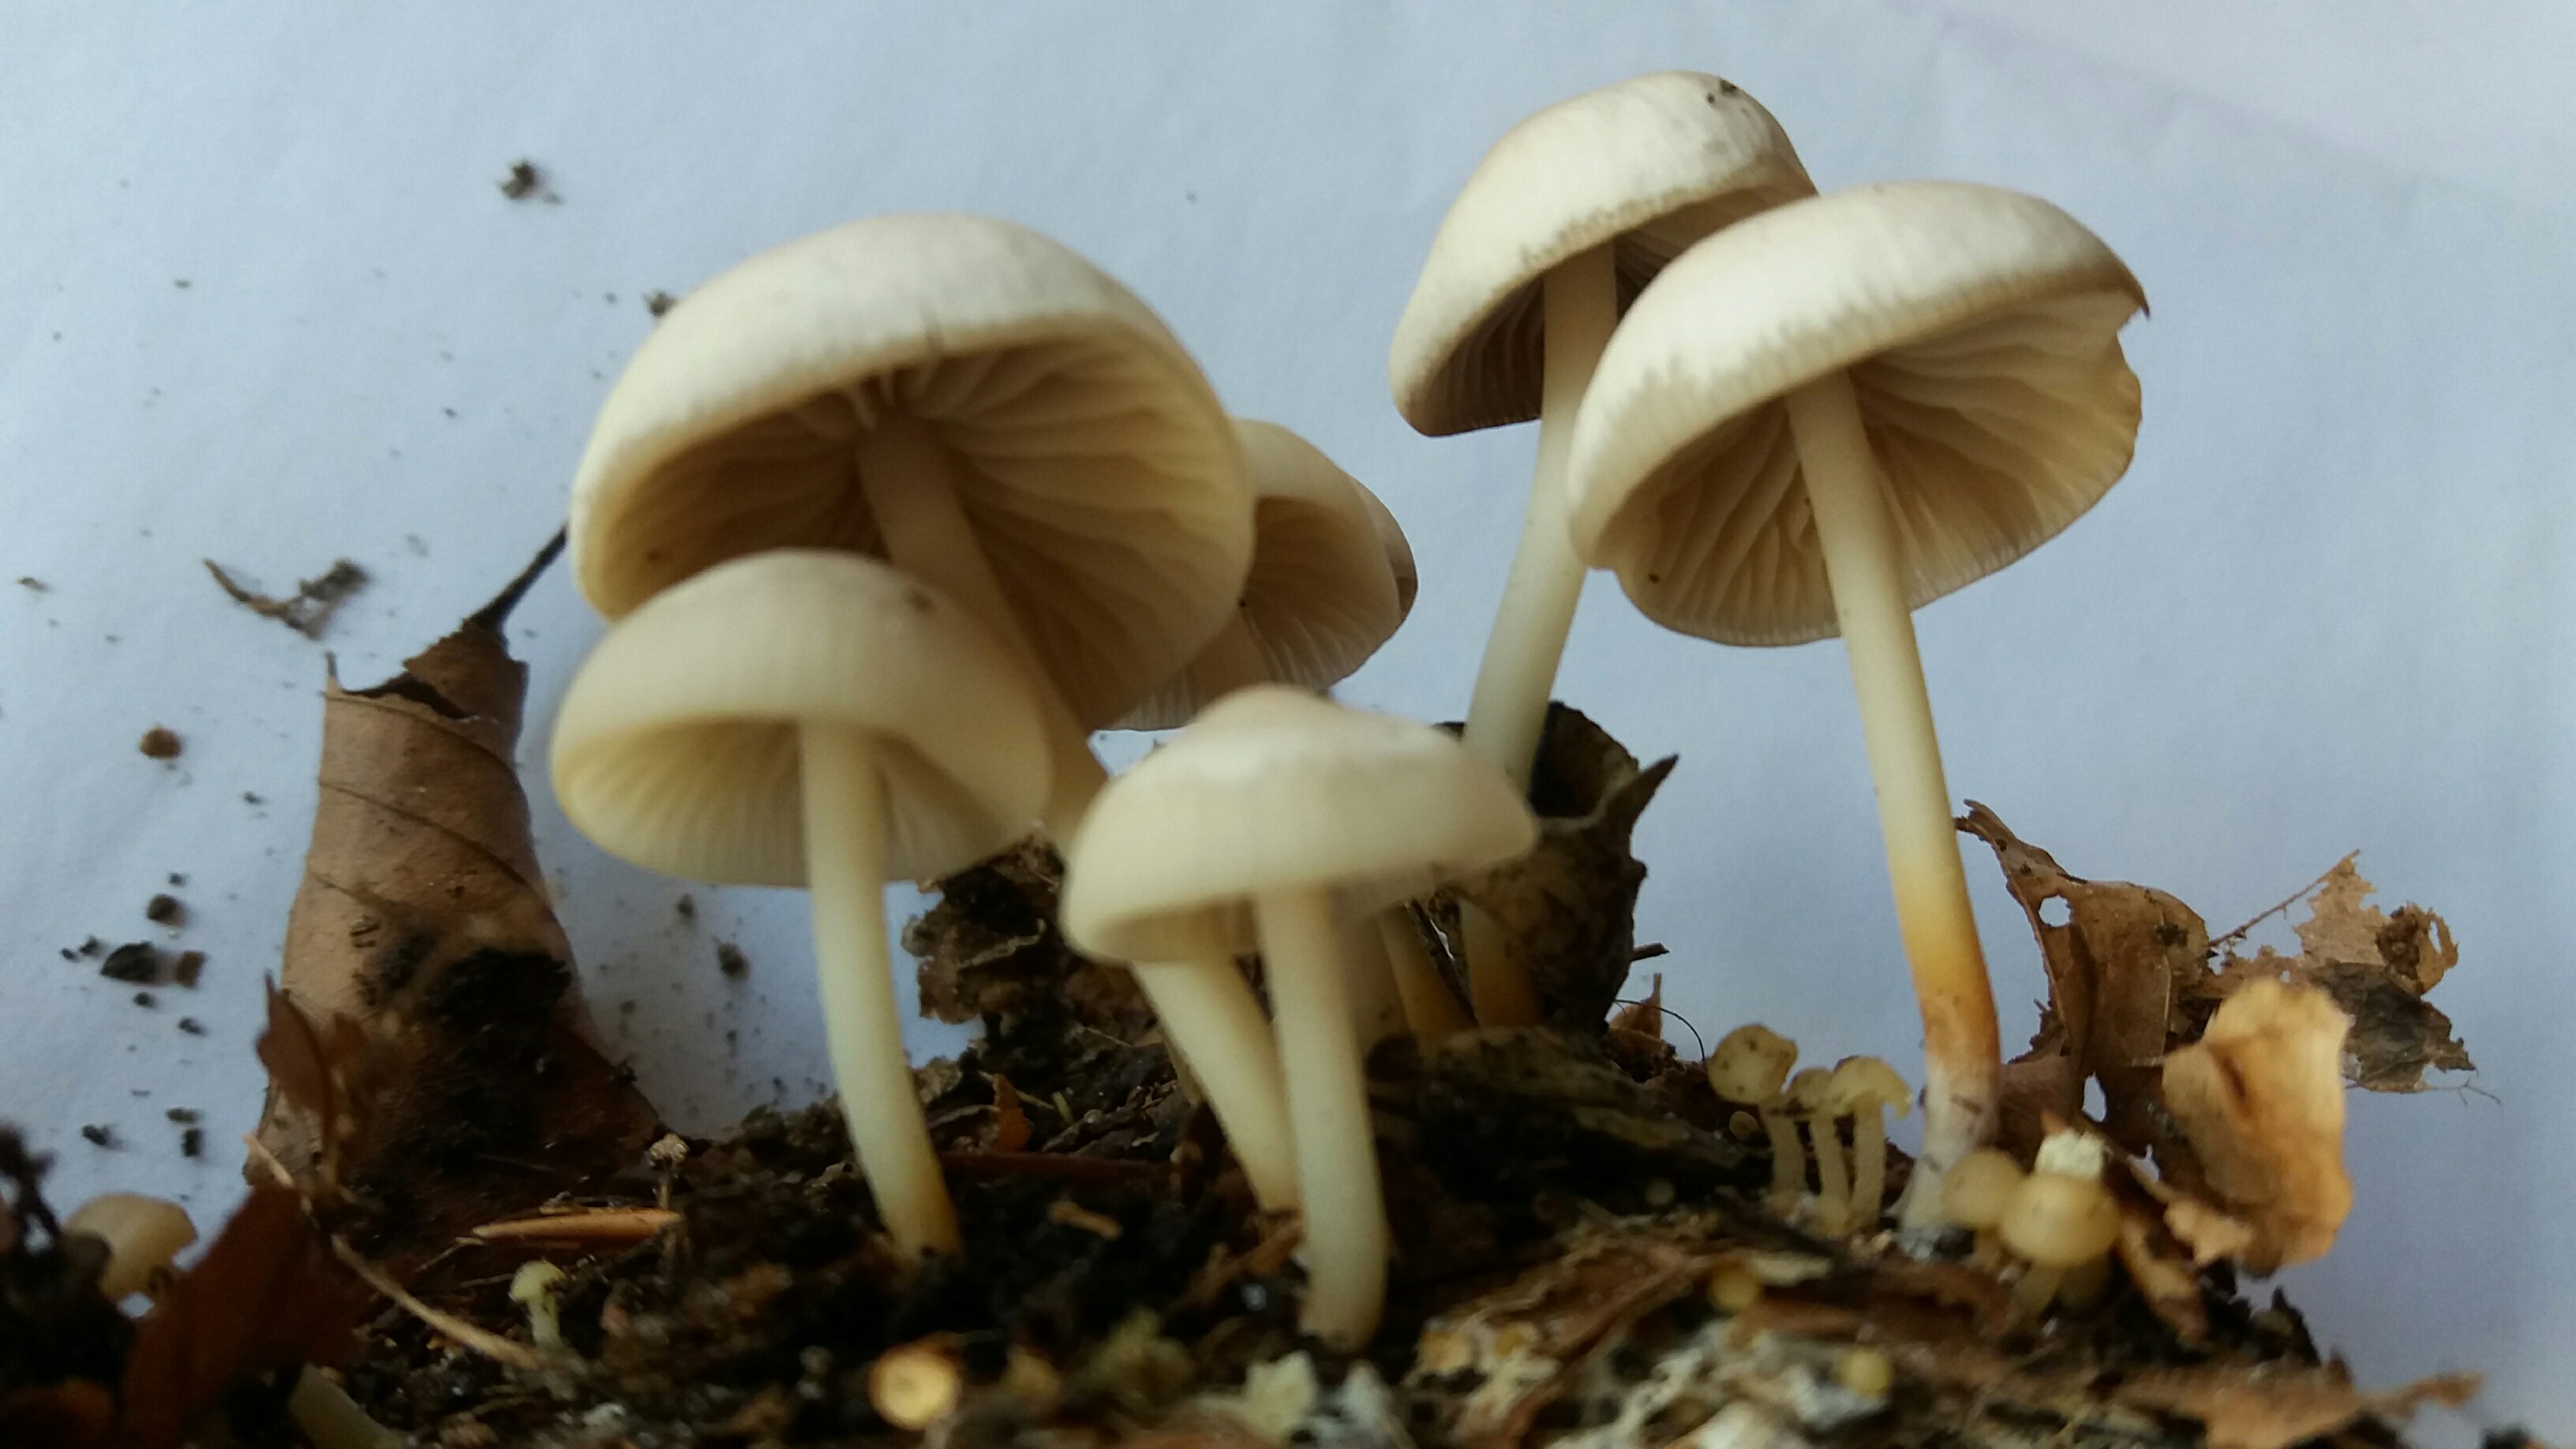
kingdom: Fungi
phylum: Basidiomycota
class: Agaricomycetes
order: Agaricales
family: Marasmiaceae
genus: Marasmius
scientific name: Marasmius wynneae
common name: hvælvet bruskhat
